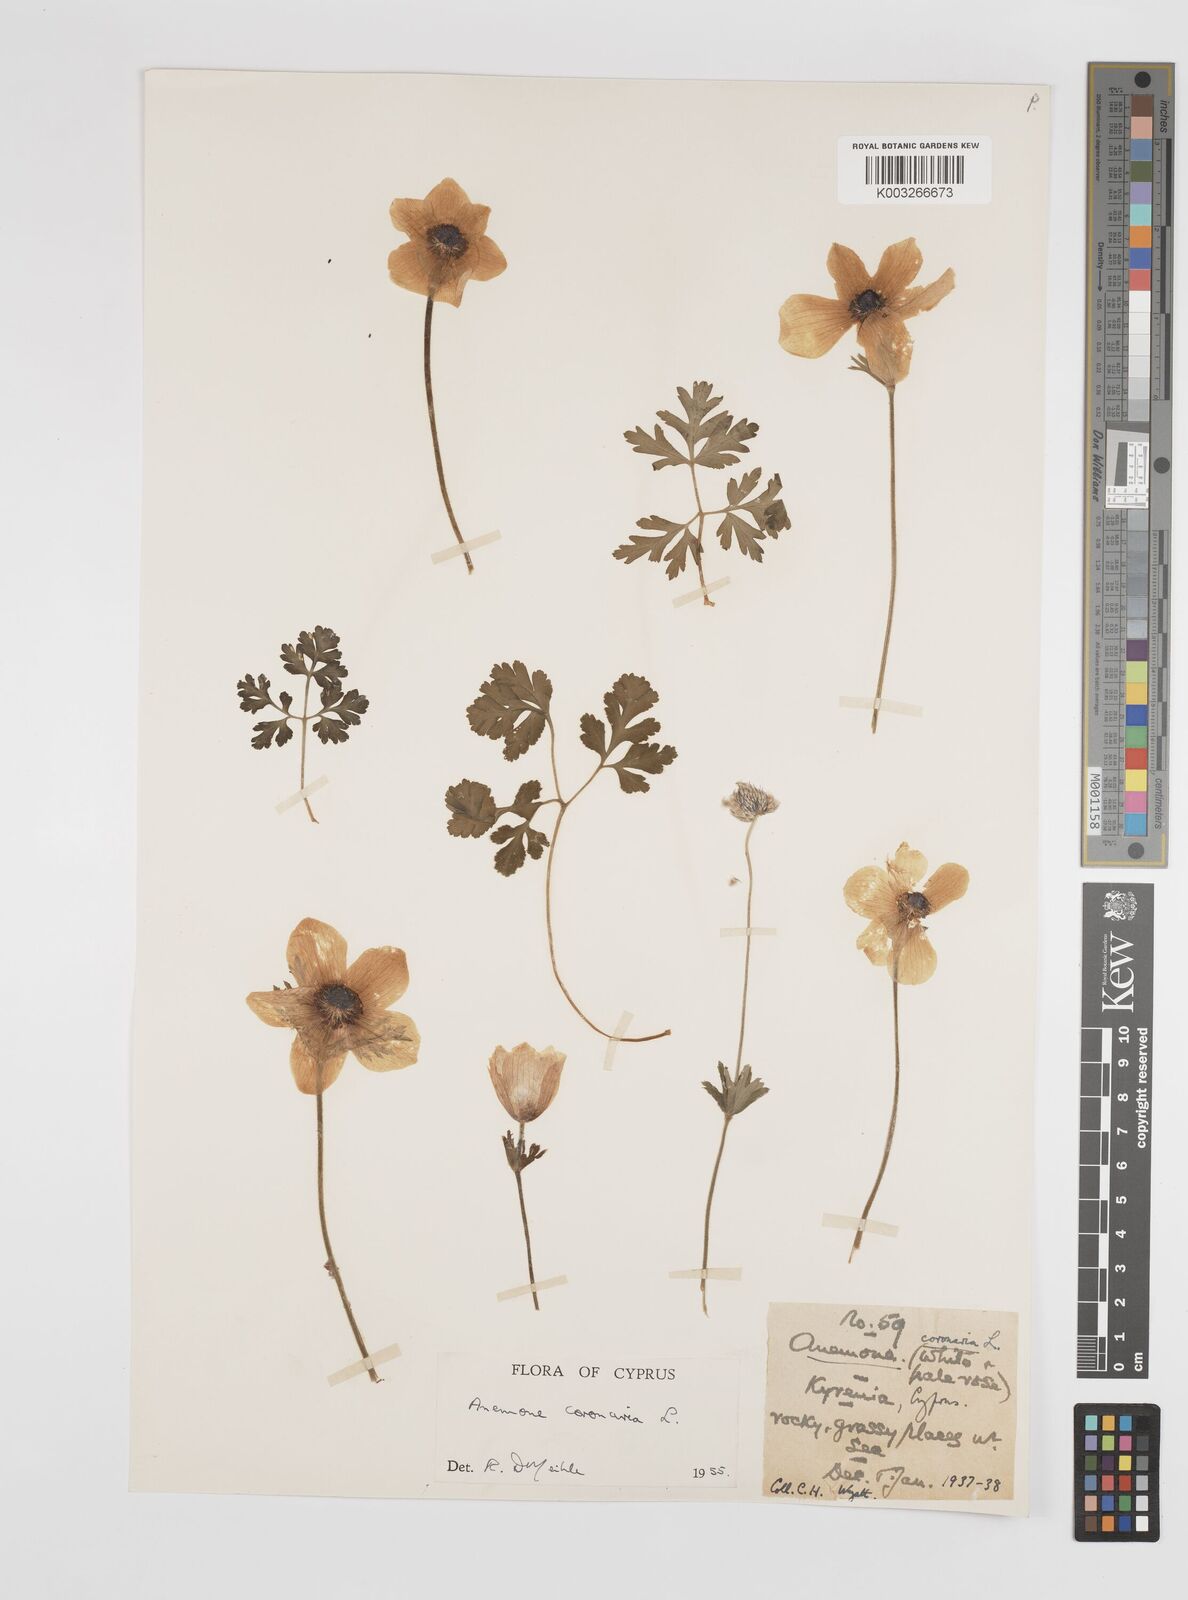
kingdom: Plantae
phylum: Tracheophyta
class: Magnoliopsida
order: Ranunculales
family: Ranunculaceae
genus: Anemone
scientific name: Anemone coronaria
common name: Poppy anemone
